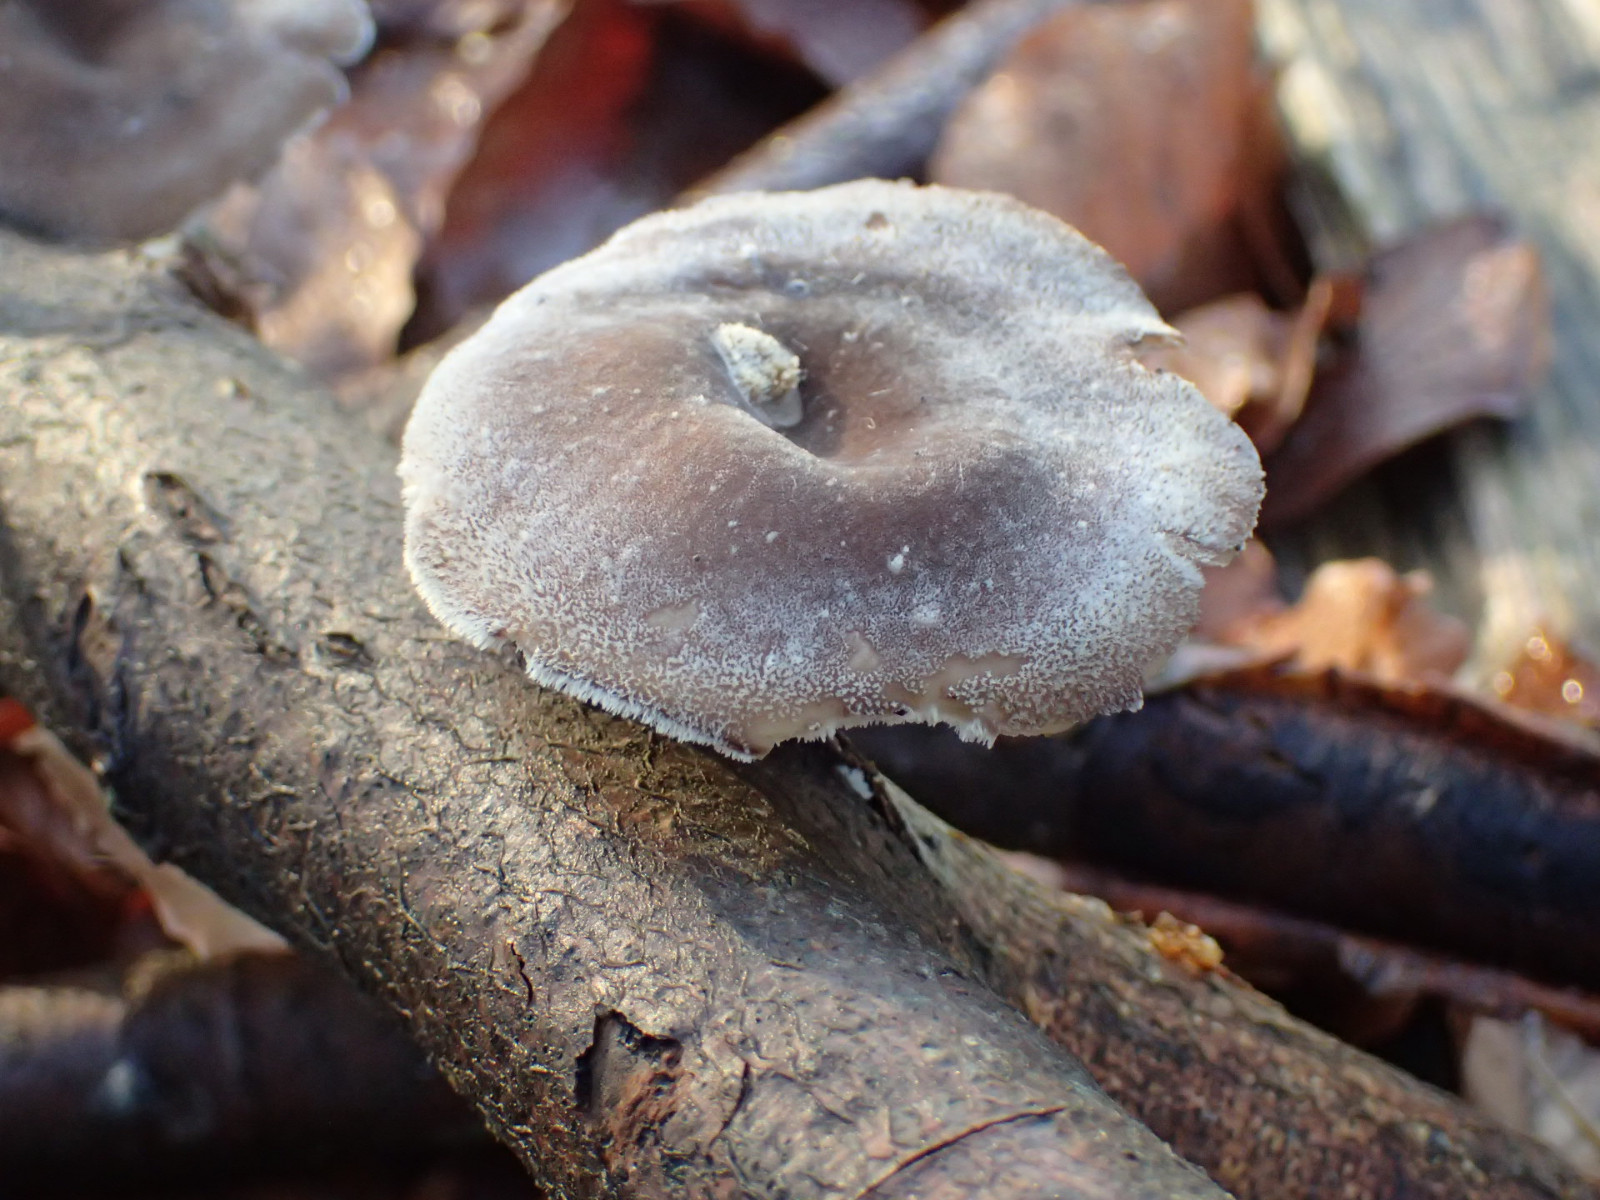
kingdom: Fungi
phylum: Basidiomycota
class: Agaricomycetes
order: Polyporales
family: Polyporaceae
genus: Lentinus
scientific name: Lentinus brumalis
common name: vinter-stilkporesvamp
